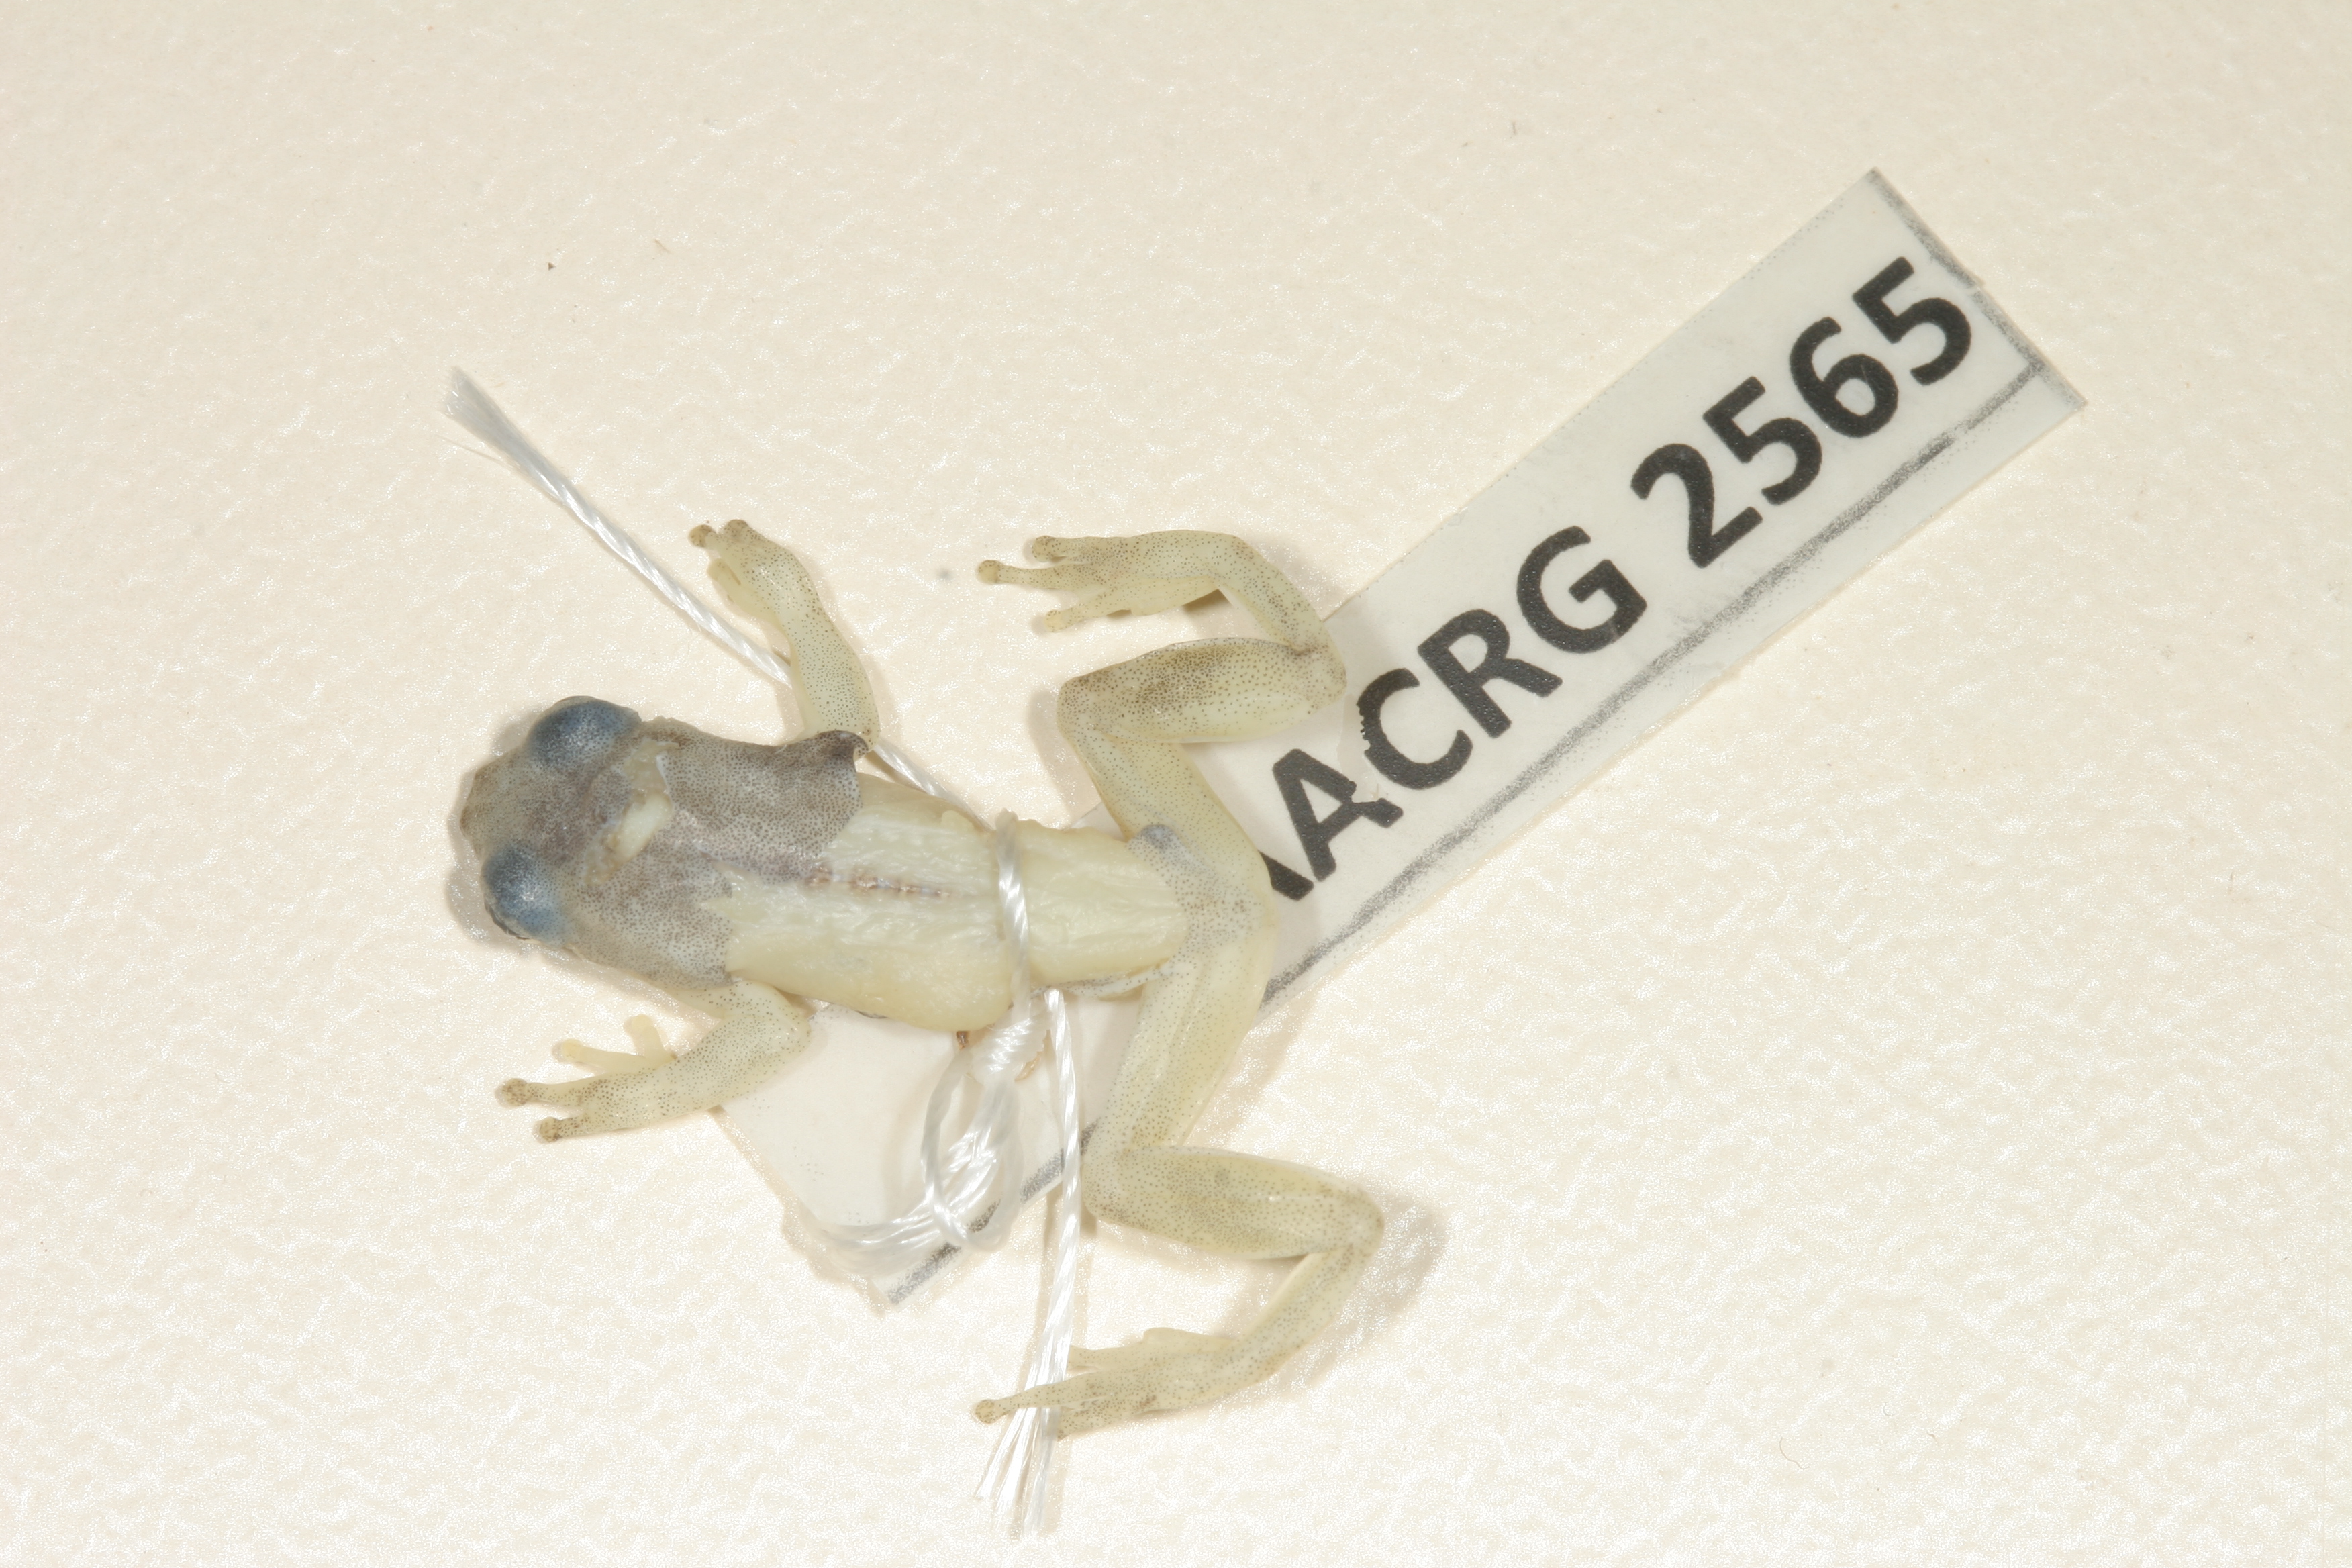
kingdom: Animalia
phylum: Chordata
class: Amphibia
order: Anura
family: Hyperoliidae
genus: Afrixalus
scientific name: Afrixalus aureus
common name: Golden banana frog
